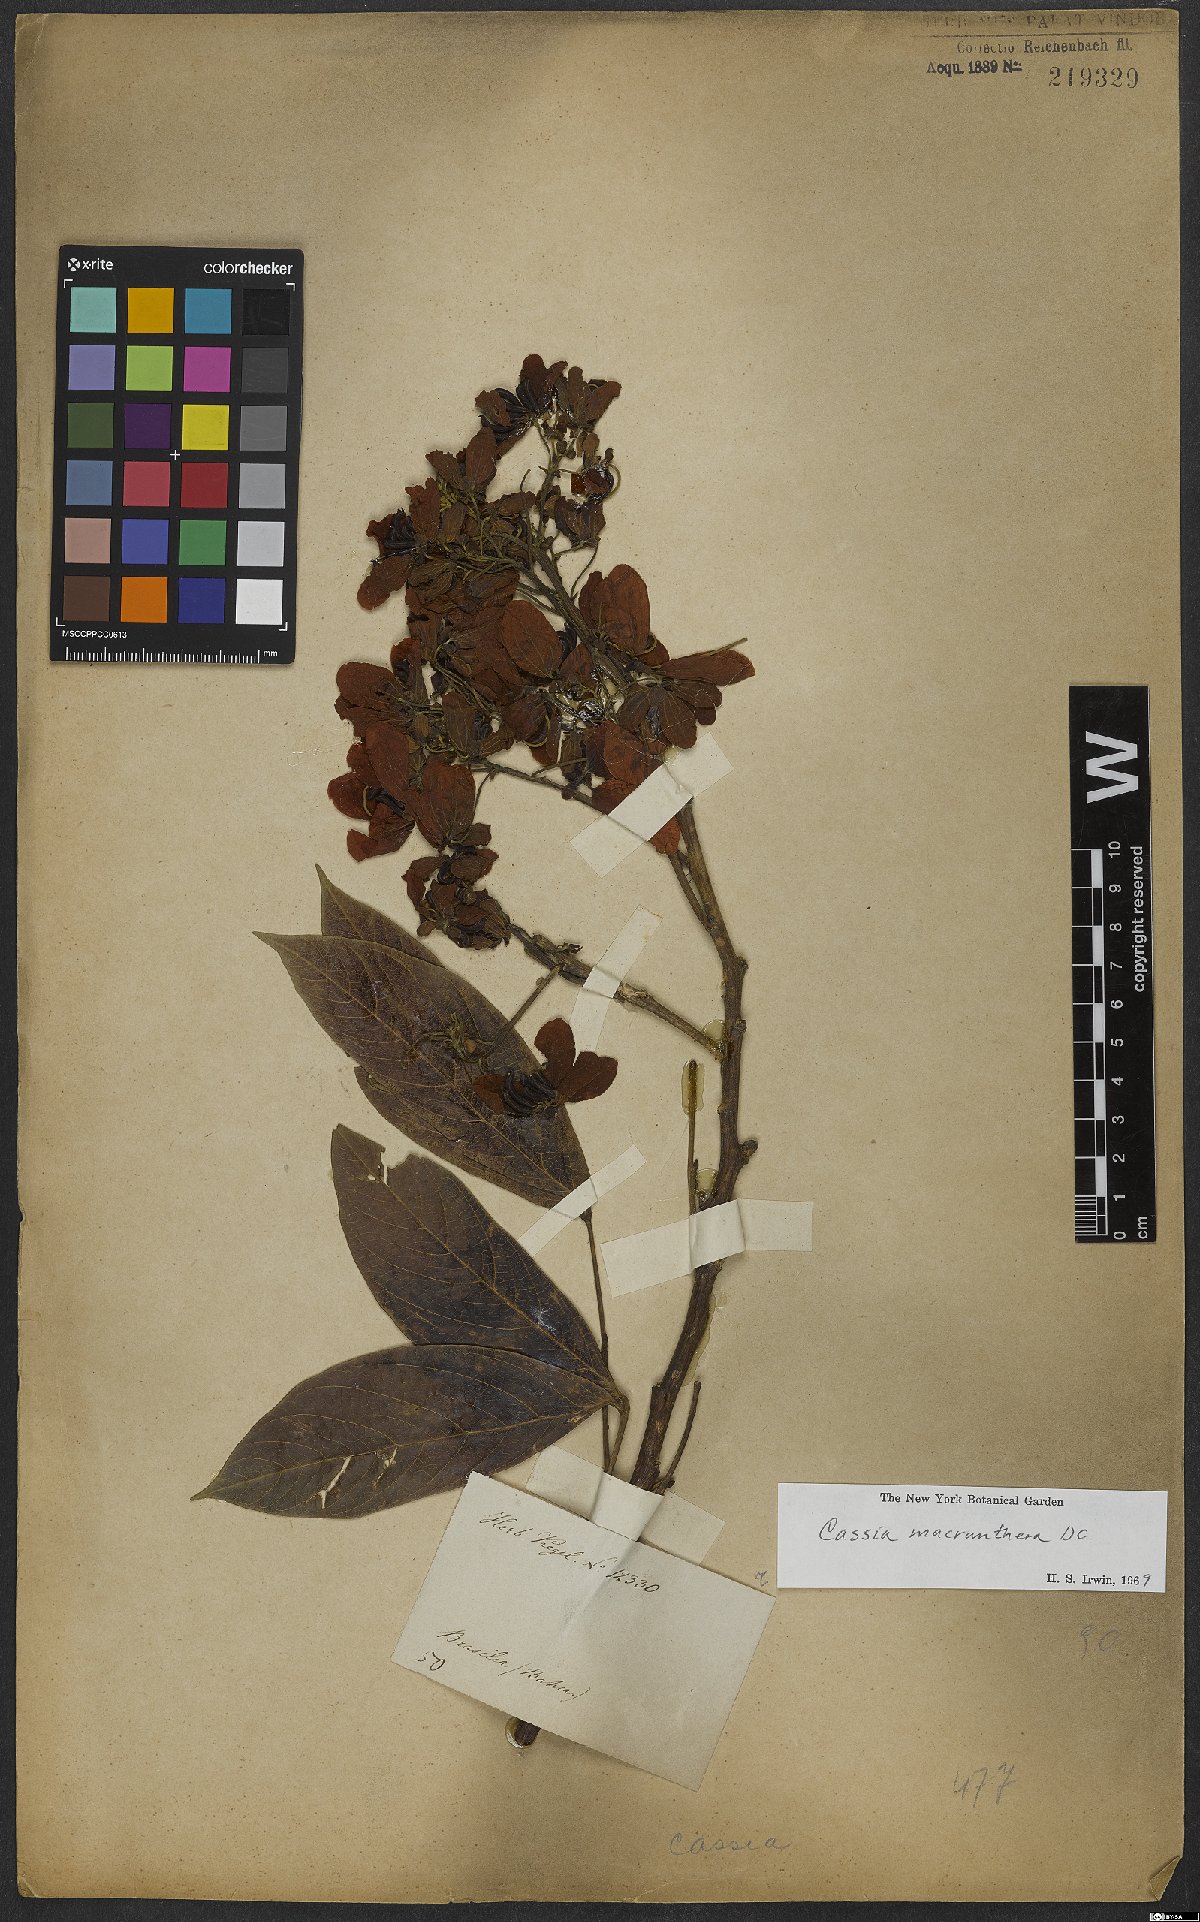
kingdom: Plantae
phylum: Tracheophyta
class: Magnoliopsida
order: Fabales
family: Fabaceae
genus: Senna
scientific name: Senna macranthera
